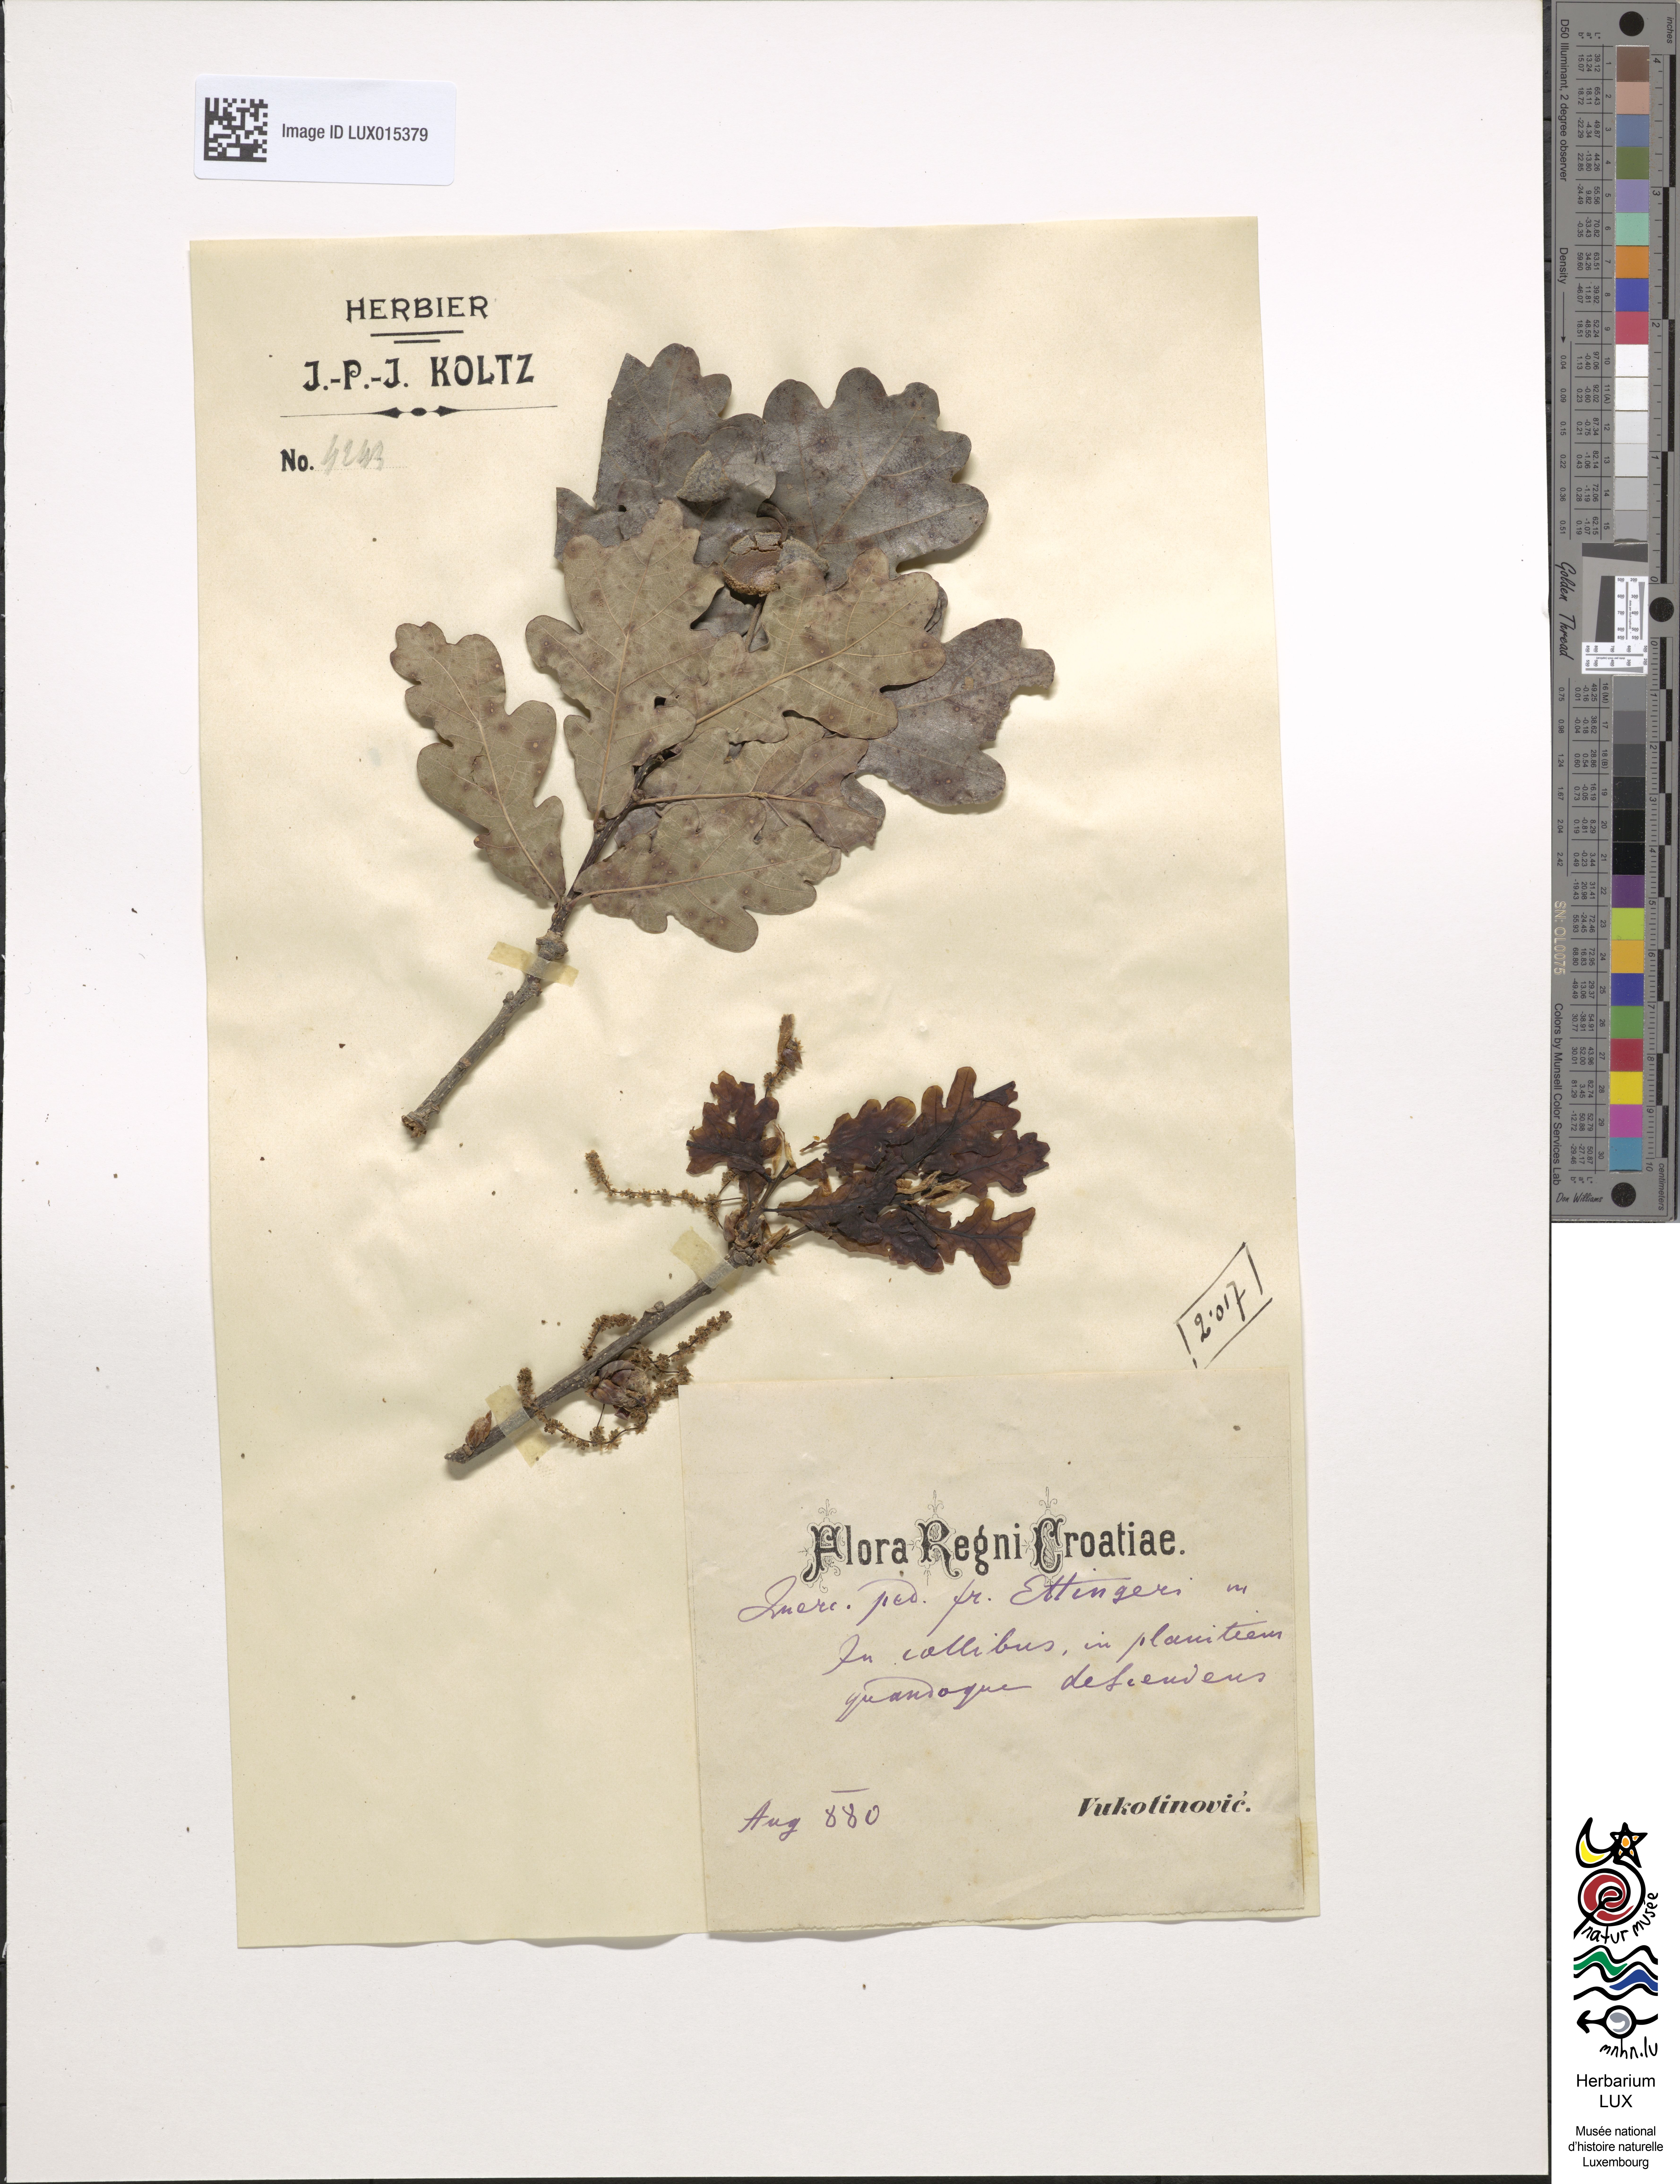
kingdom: Plantae
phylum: Tracheophyta
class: Magnoliopsida
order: Fagales
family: Fagaceae
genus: Quercus
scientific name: Quercus robur
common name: Pedunculate oak
